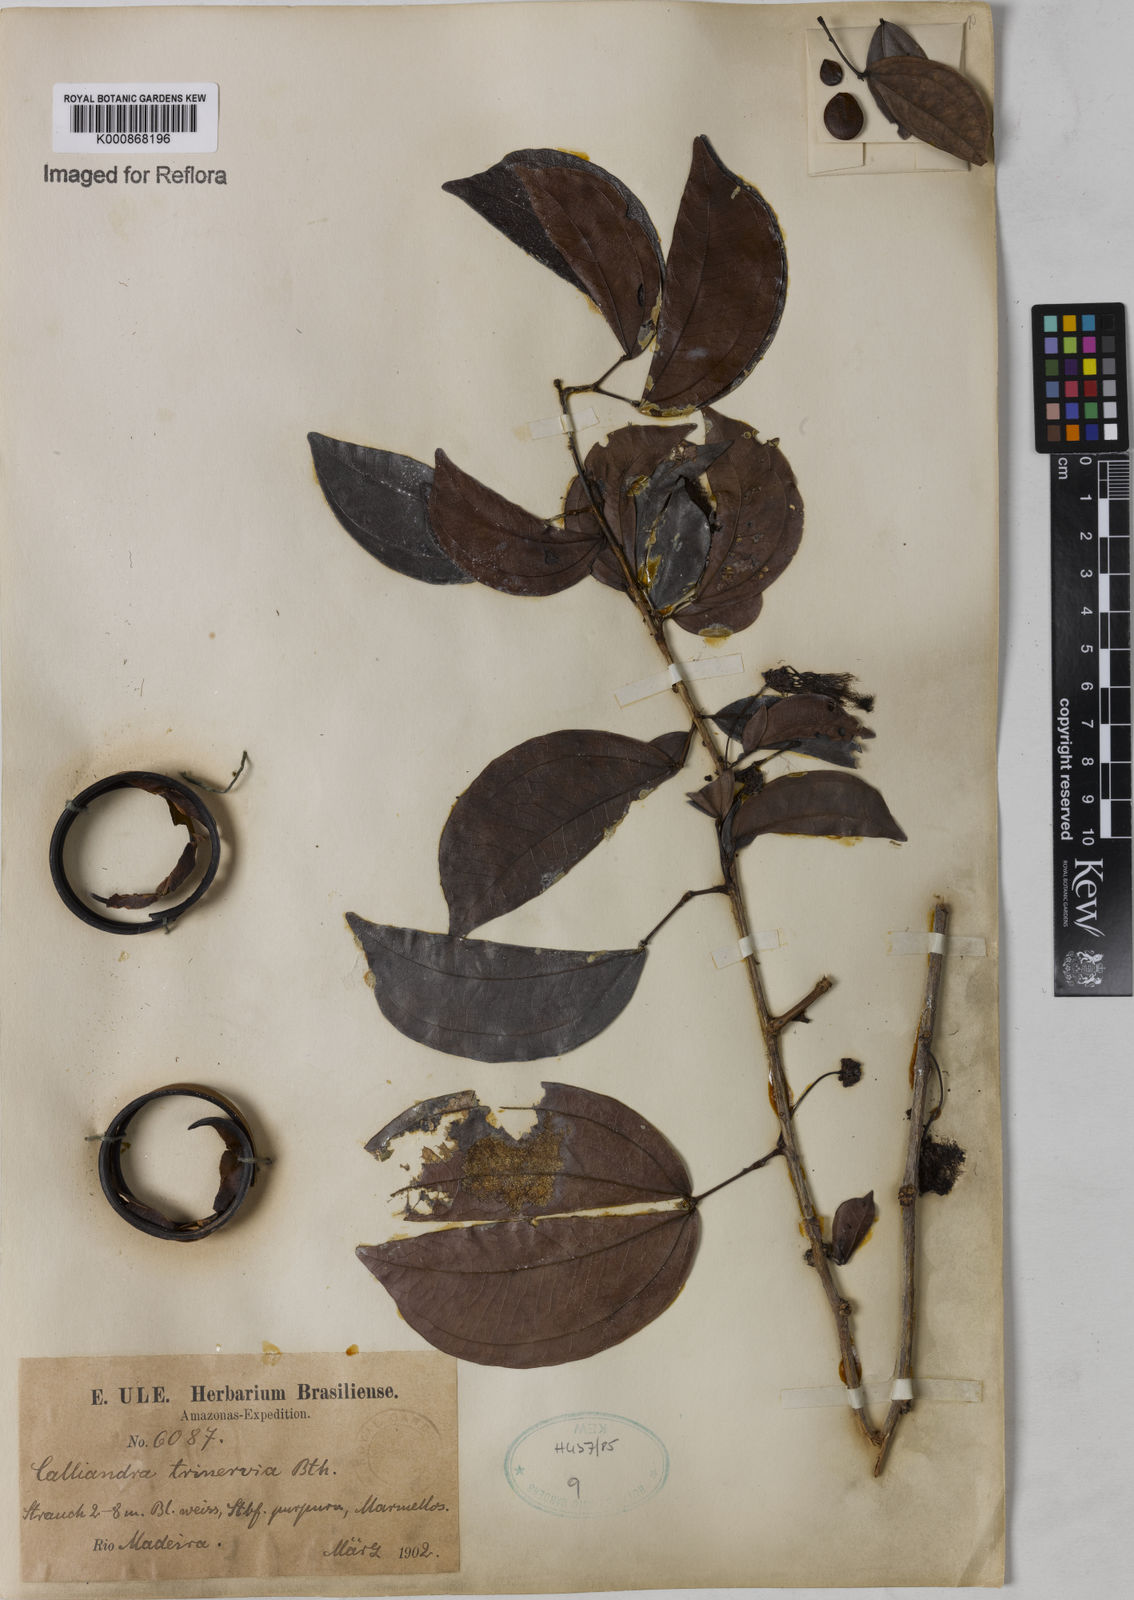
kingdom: Plantae
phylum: Tracheophyta
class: Magnoliopsida
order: Fabales
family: Fabaceae
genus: Calliandra
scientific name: Calliandra trinervia
